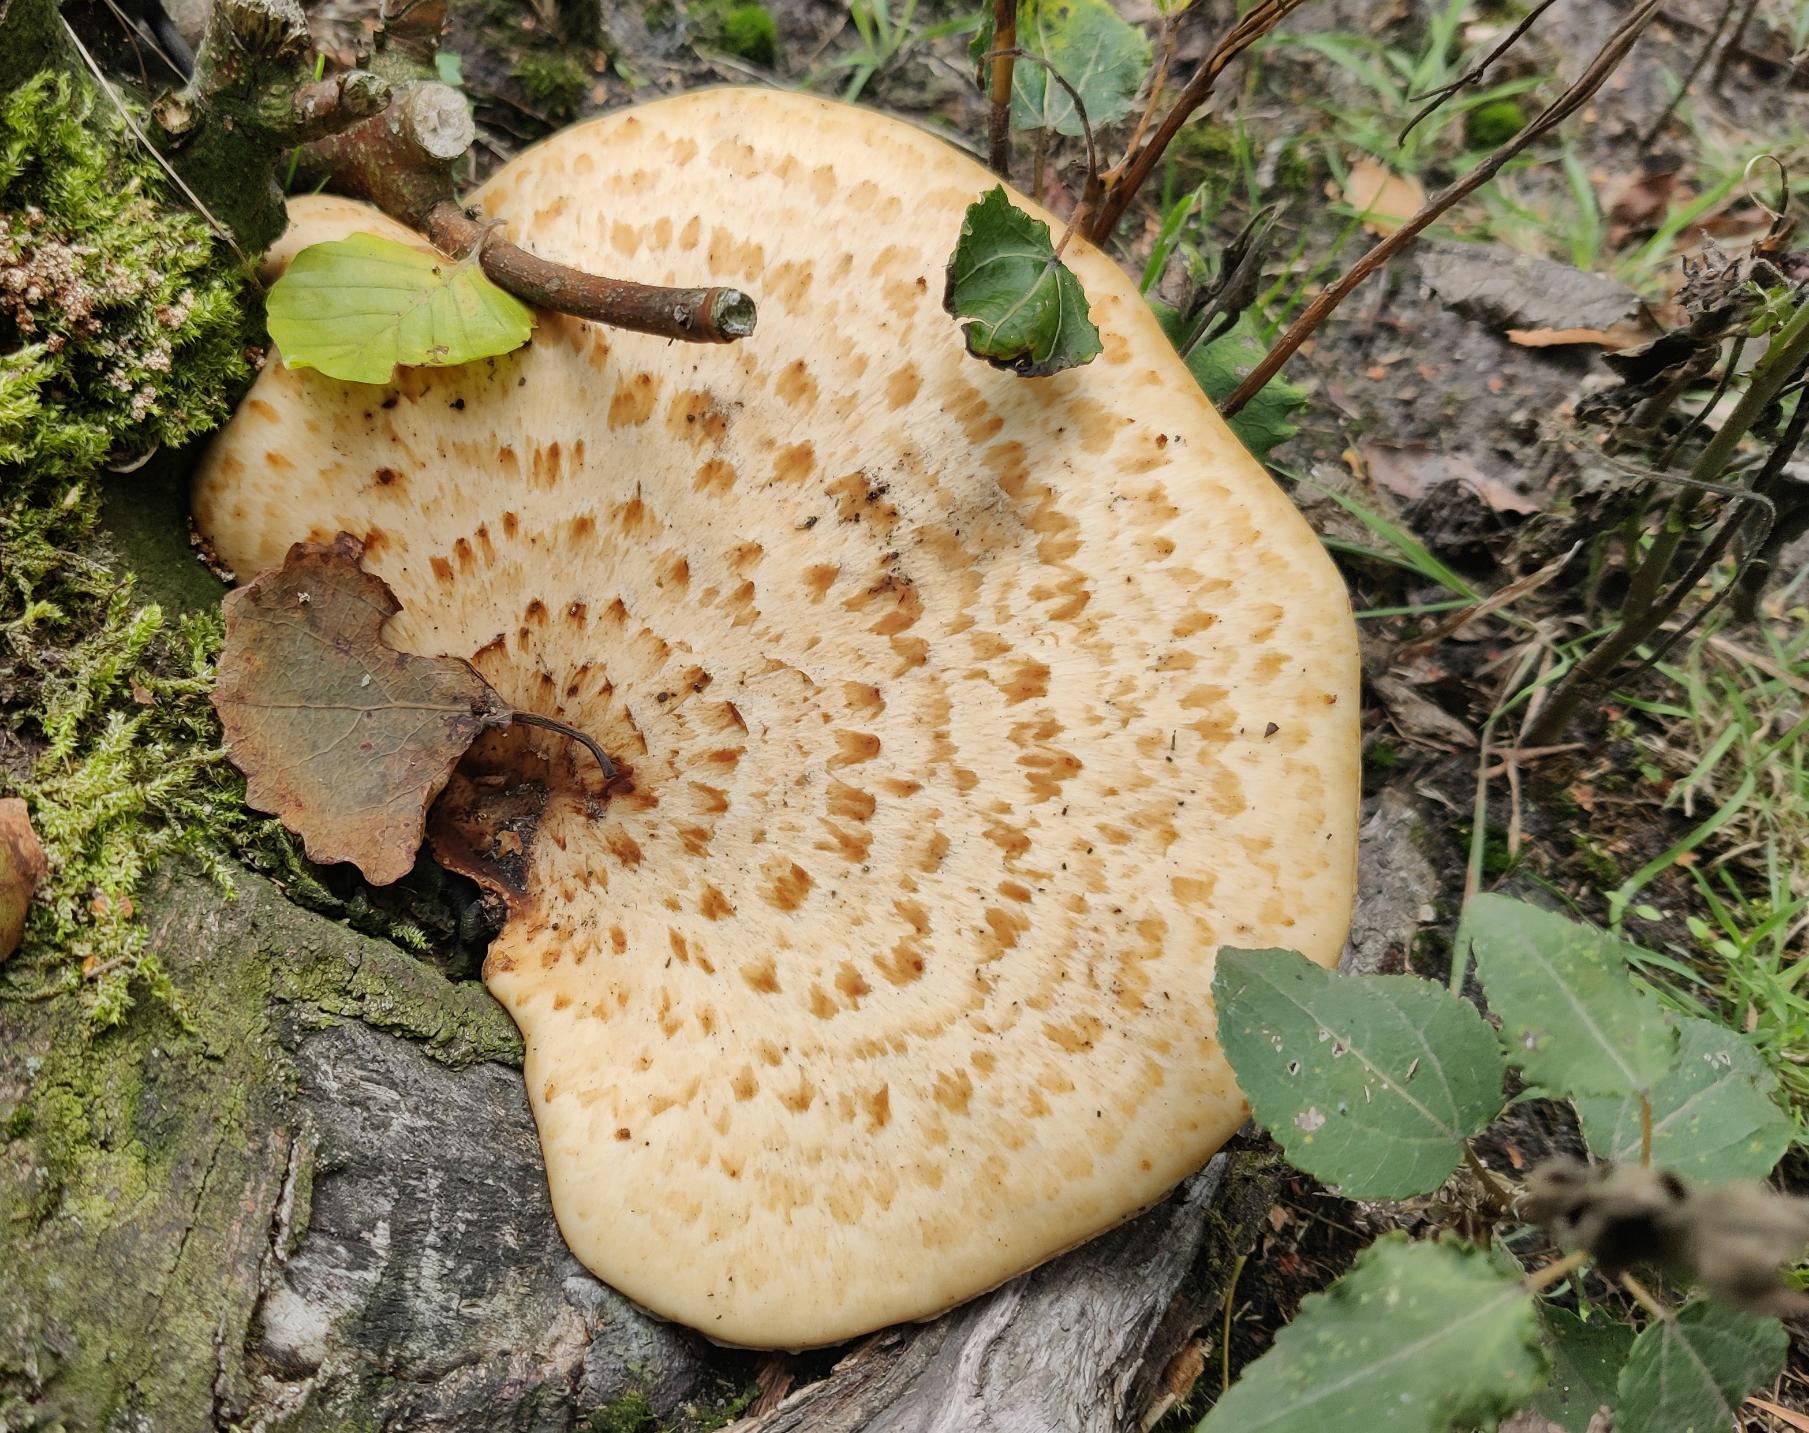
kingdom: Fungi
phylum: Basidiomycota
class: Agaricomycetes
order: Polyporales
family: Polyporaceae
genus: Cerioporus
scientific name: Cerioporus squamosus
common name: Skællet stilkporesvamp
